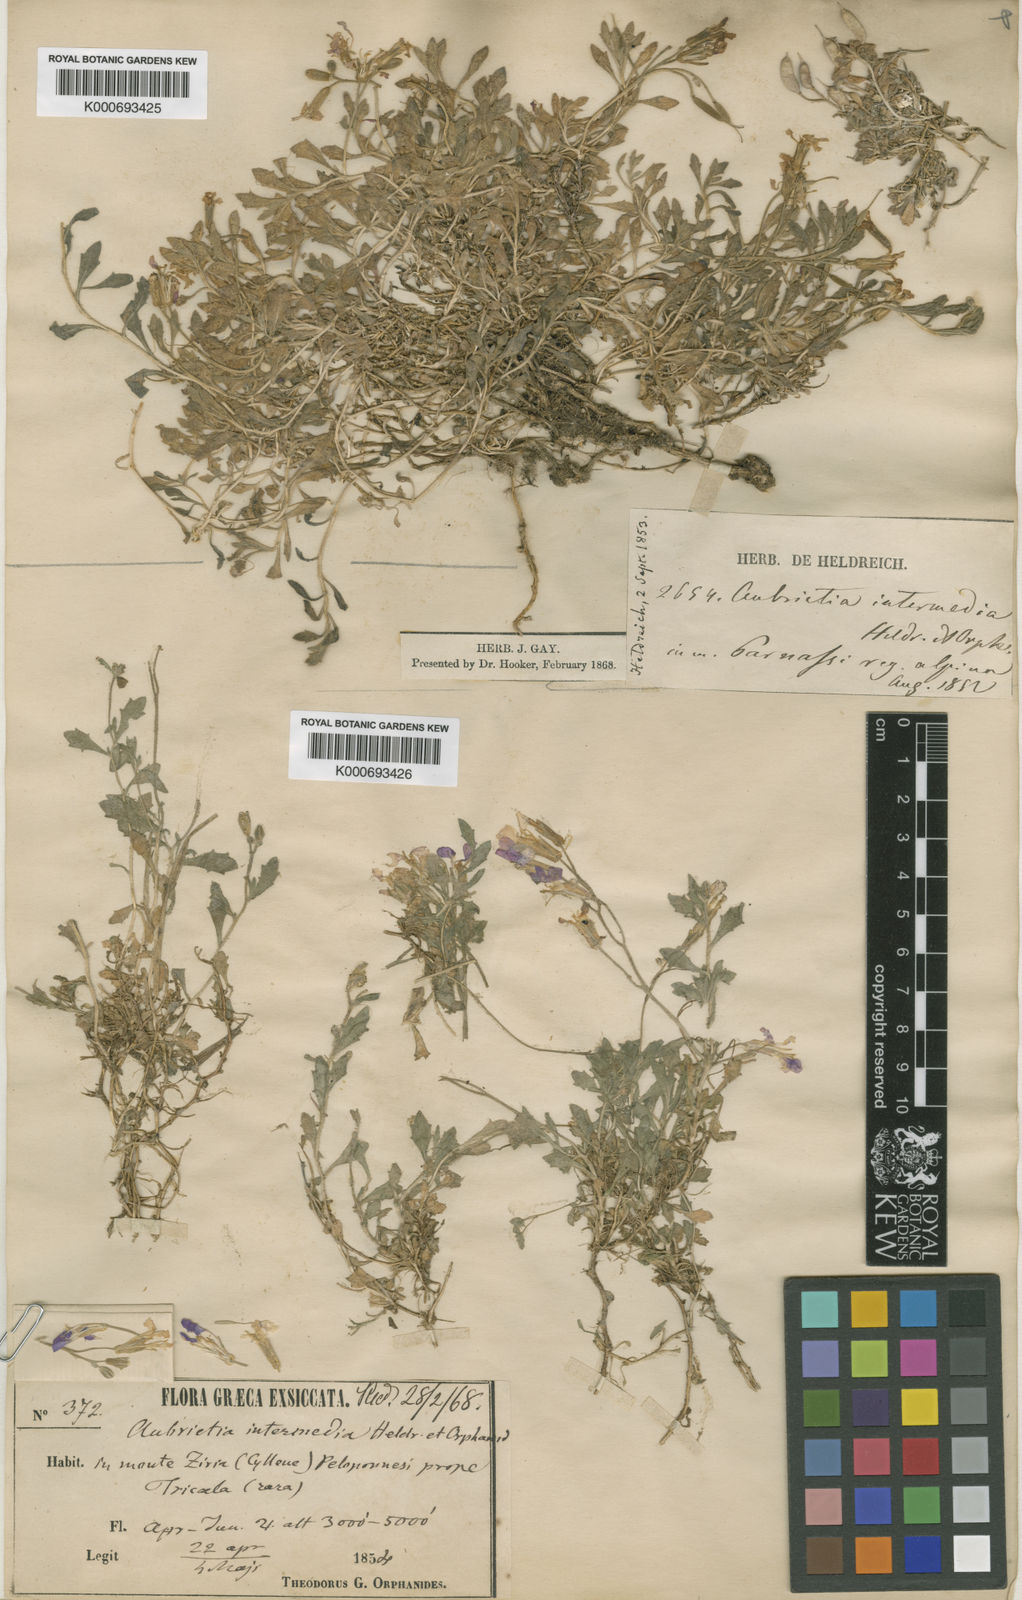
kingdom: Plantae
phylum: Tracheophyta
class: Magnoliopsida
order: Brassicales
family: Brassicaceae
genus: Aubrieta
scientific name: Aubrieta deltoidea
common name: Aubretia
